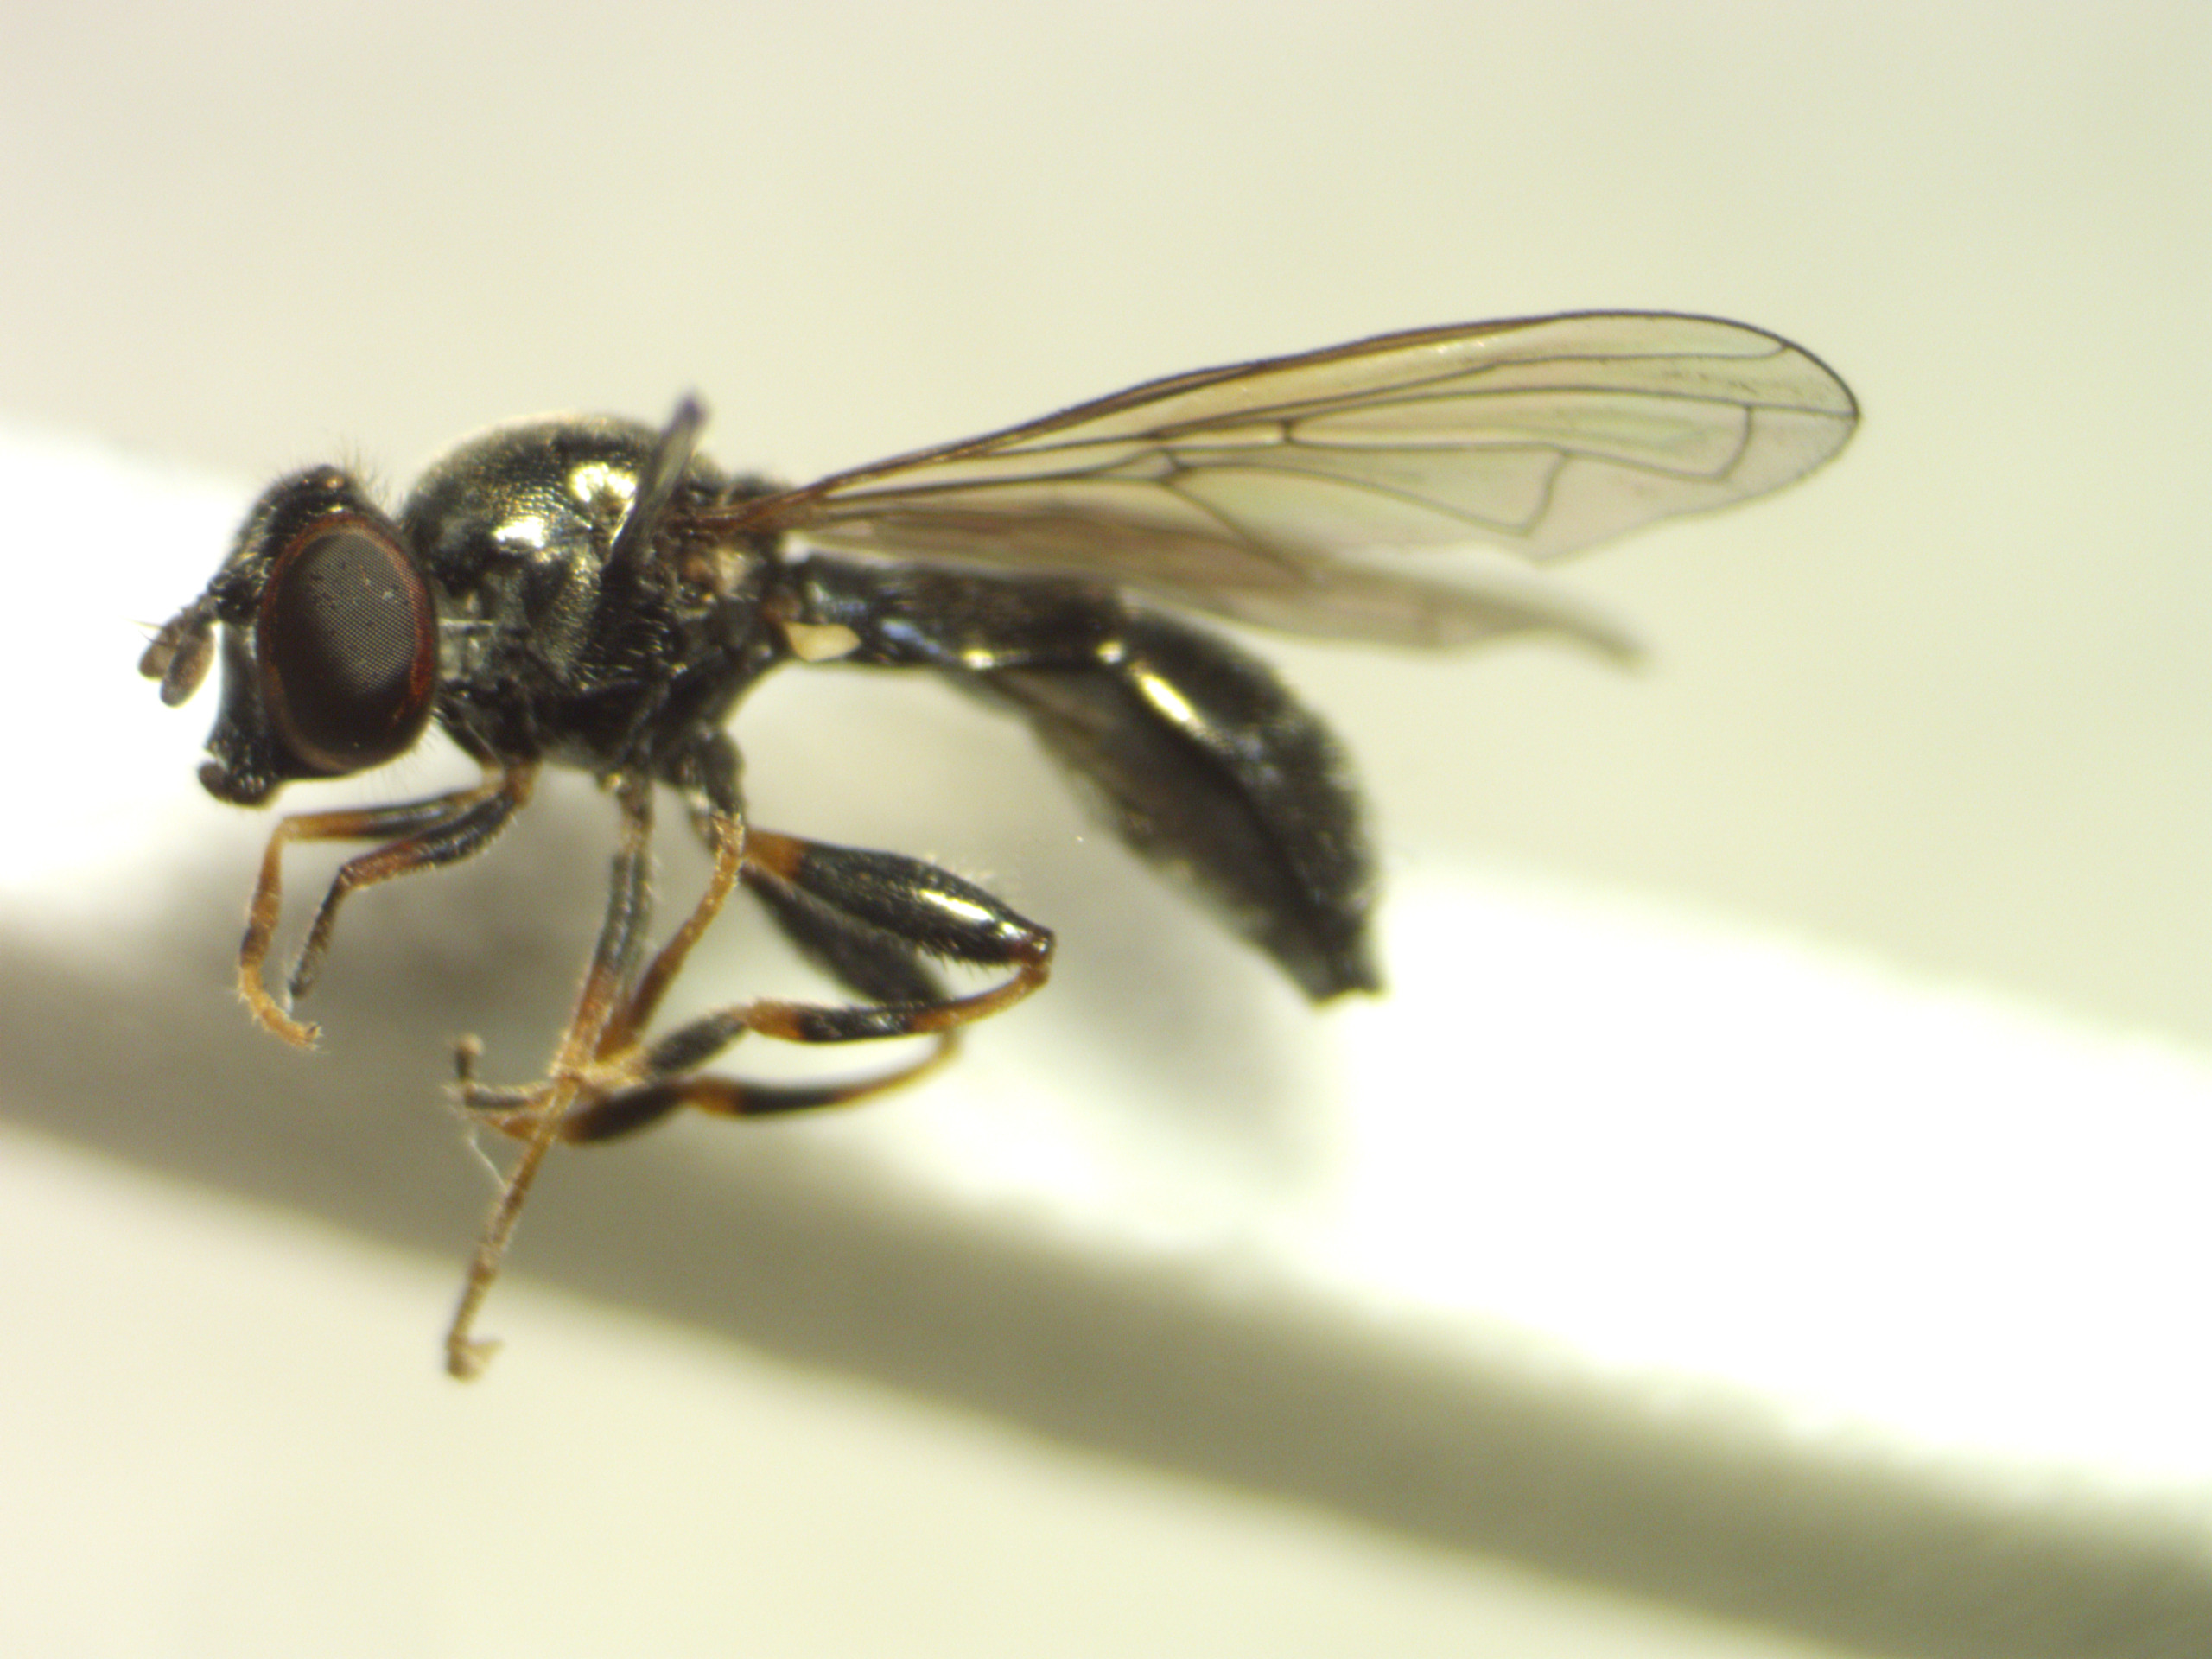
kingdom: Animalia
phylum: Arthropoda
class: Insecta
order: Diptera
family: Syrphidae
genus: Neoascia
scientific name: Neoascia meticulosa
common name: Sort køllesvirreflue
